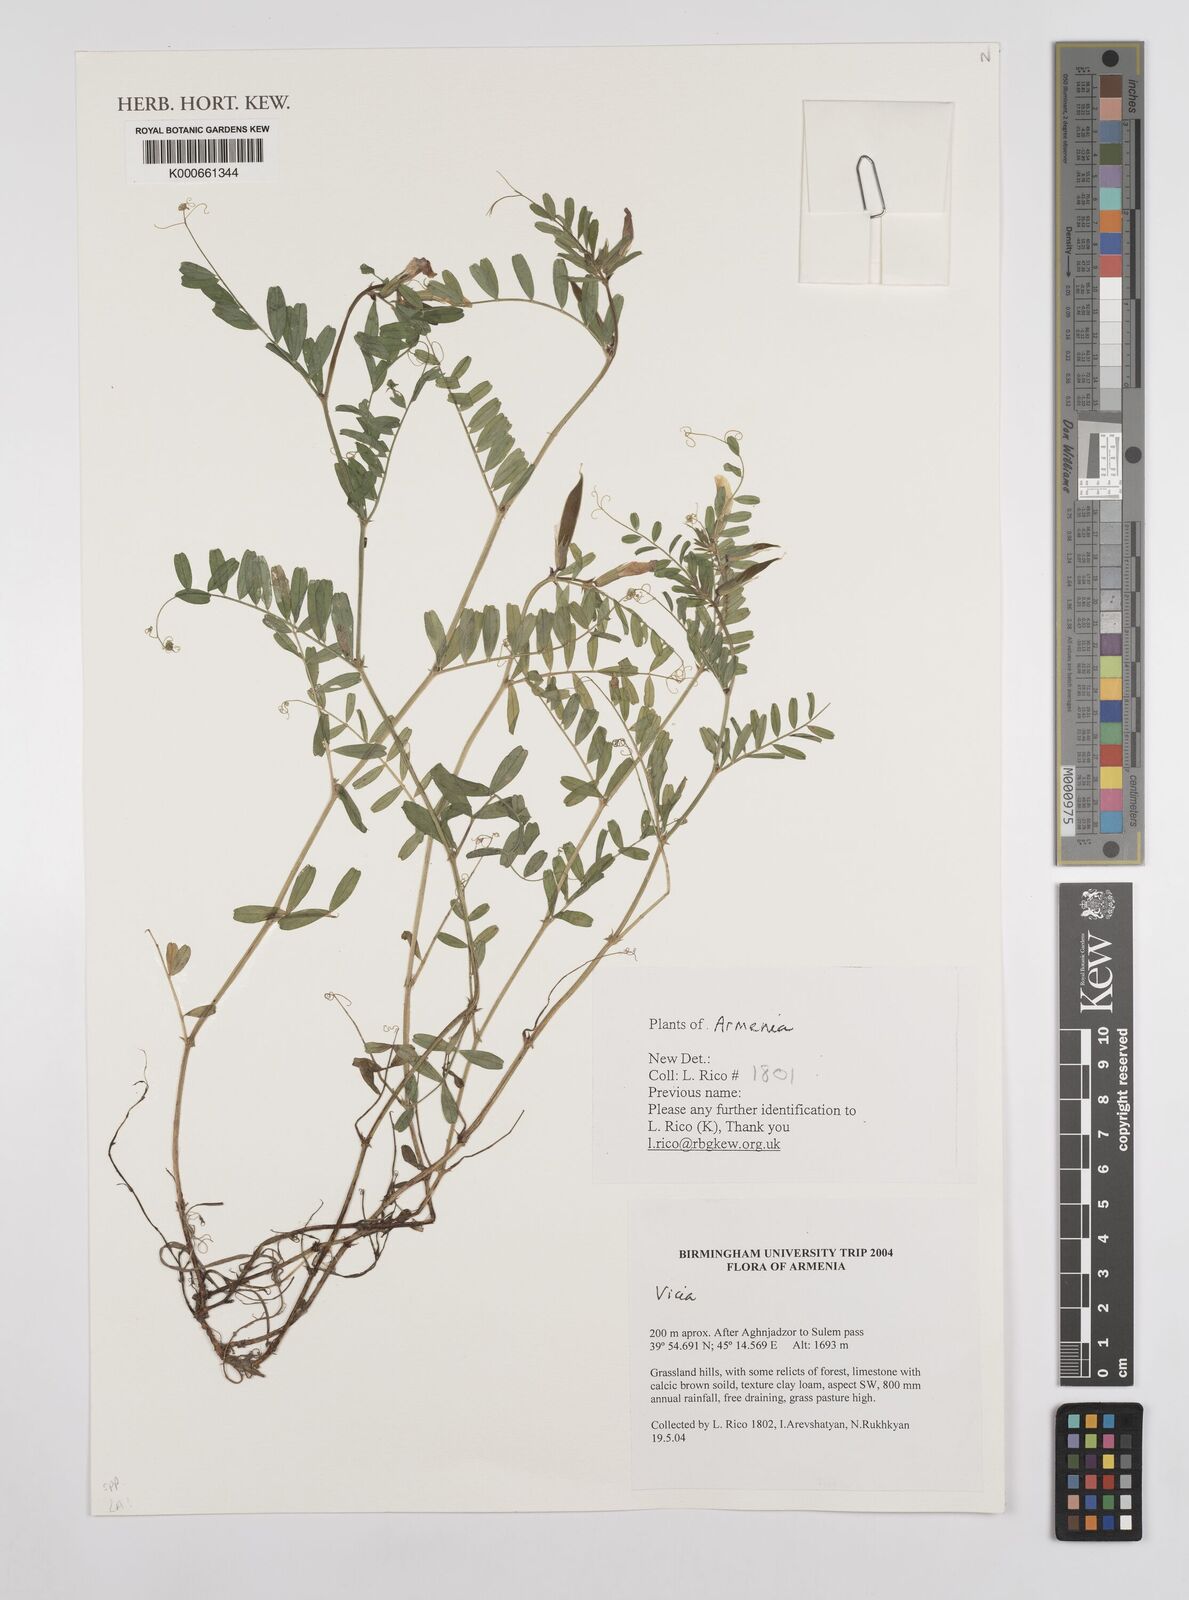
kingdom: Plantae
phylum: Tracheophyta
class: Magnoliopsida
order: Fabales
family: Fabaceae
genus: Vicia
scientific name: Vicia
